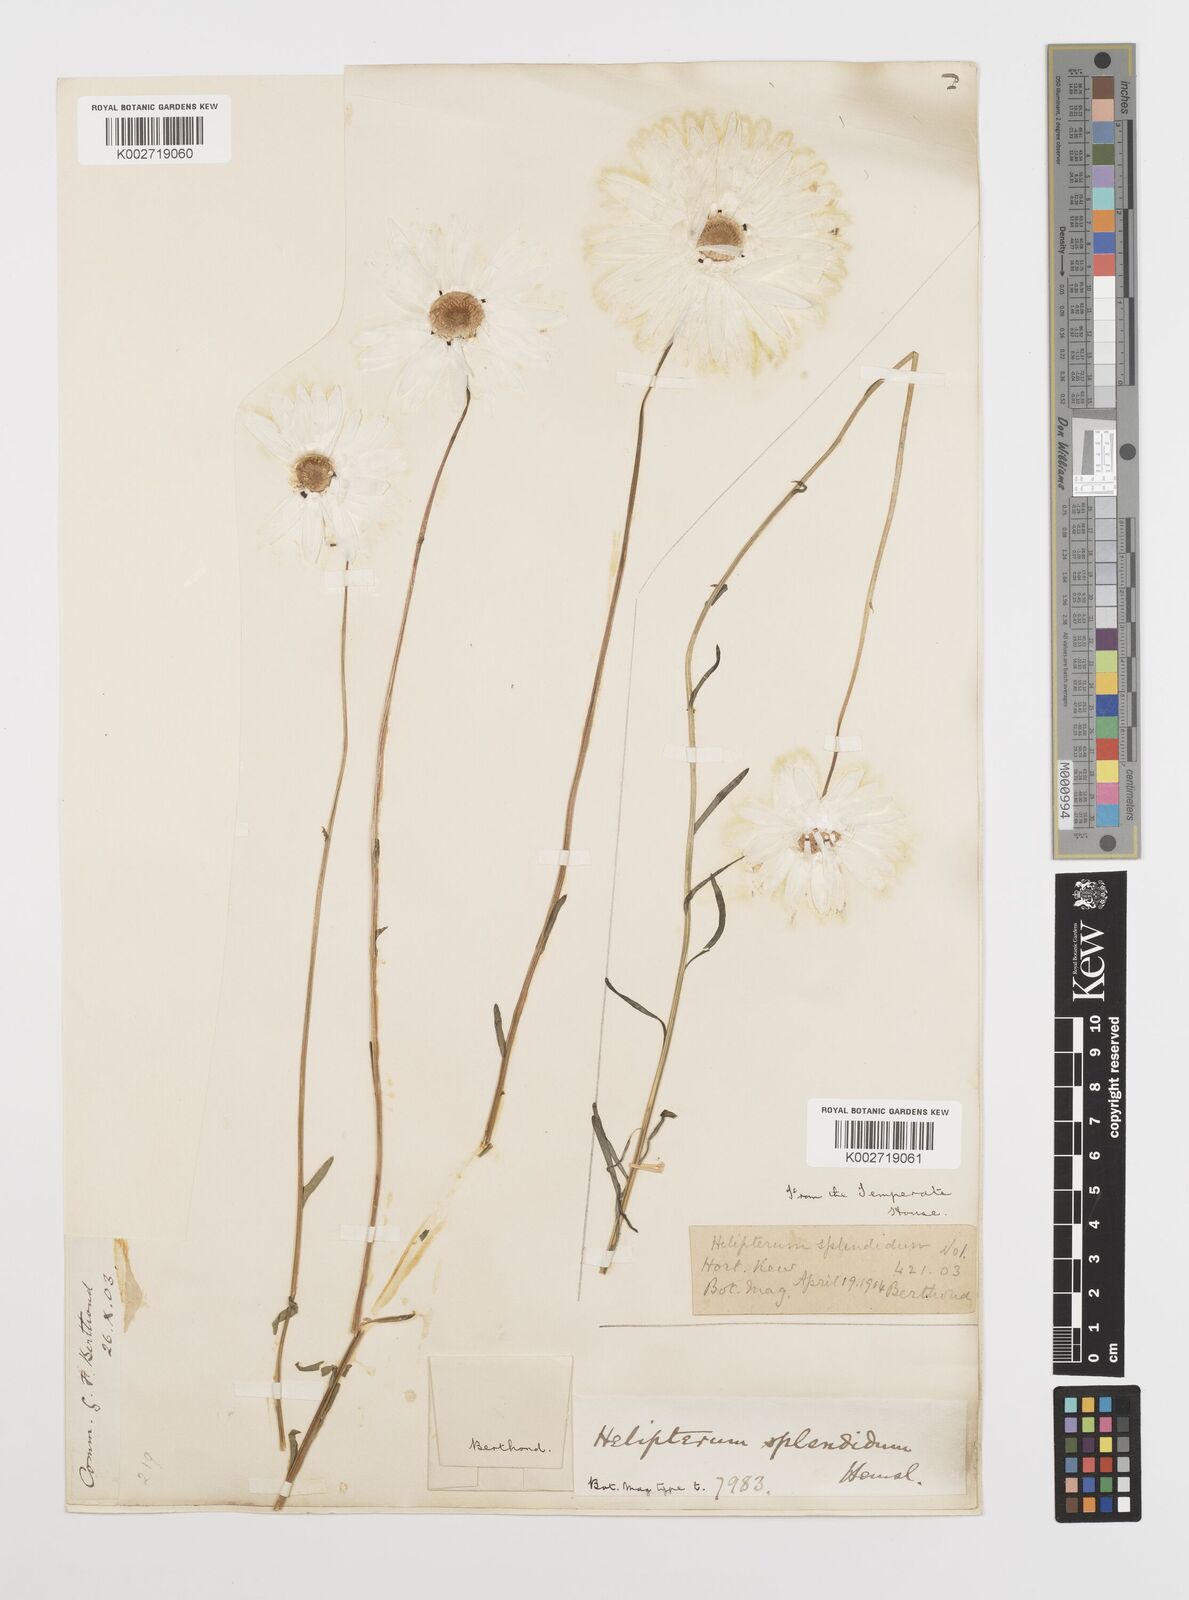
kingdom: Plantae
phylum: Tracheophyta
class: Magnoliopsida
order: Asterales
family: Asteraceae
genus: Rhodanthe
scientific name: Rhodanthe chlorocephala
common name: Rosy sunray
